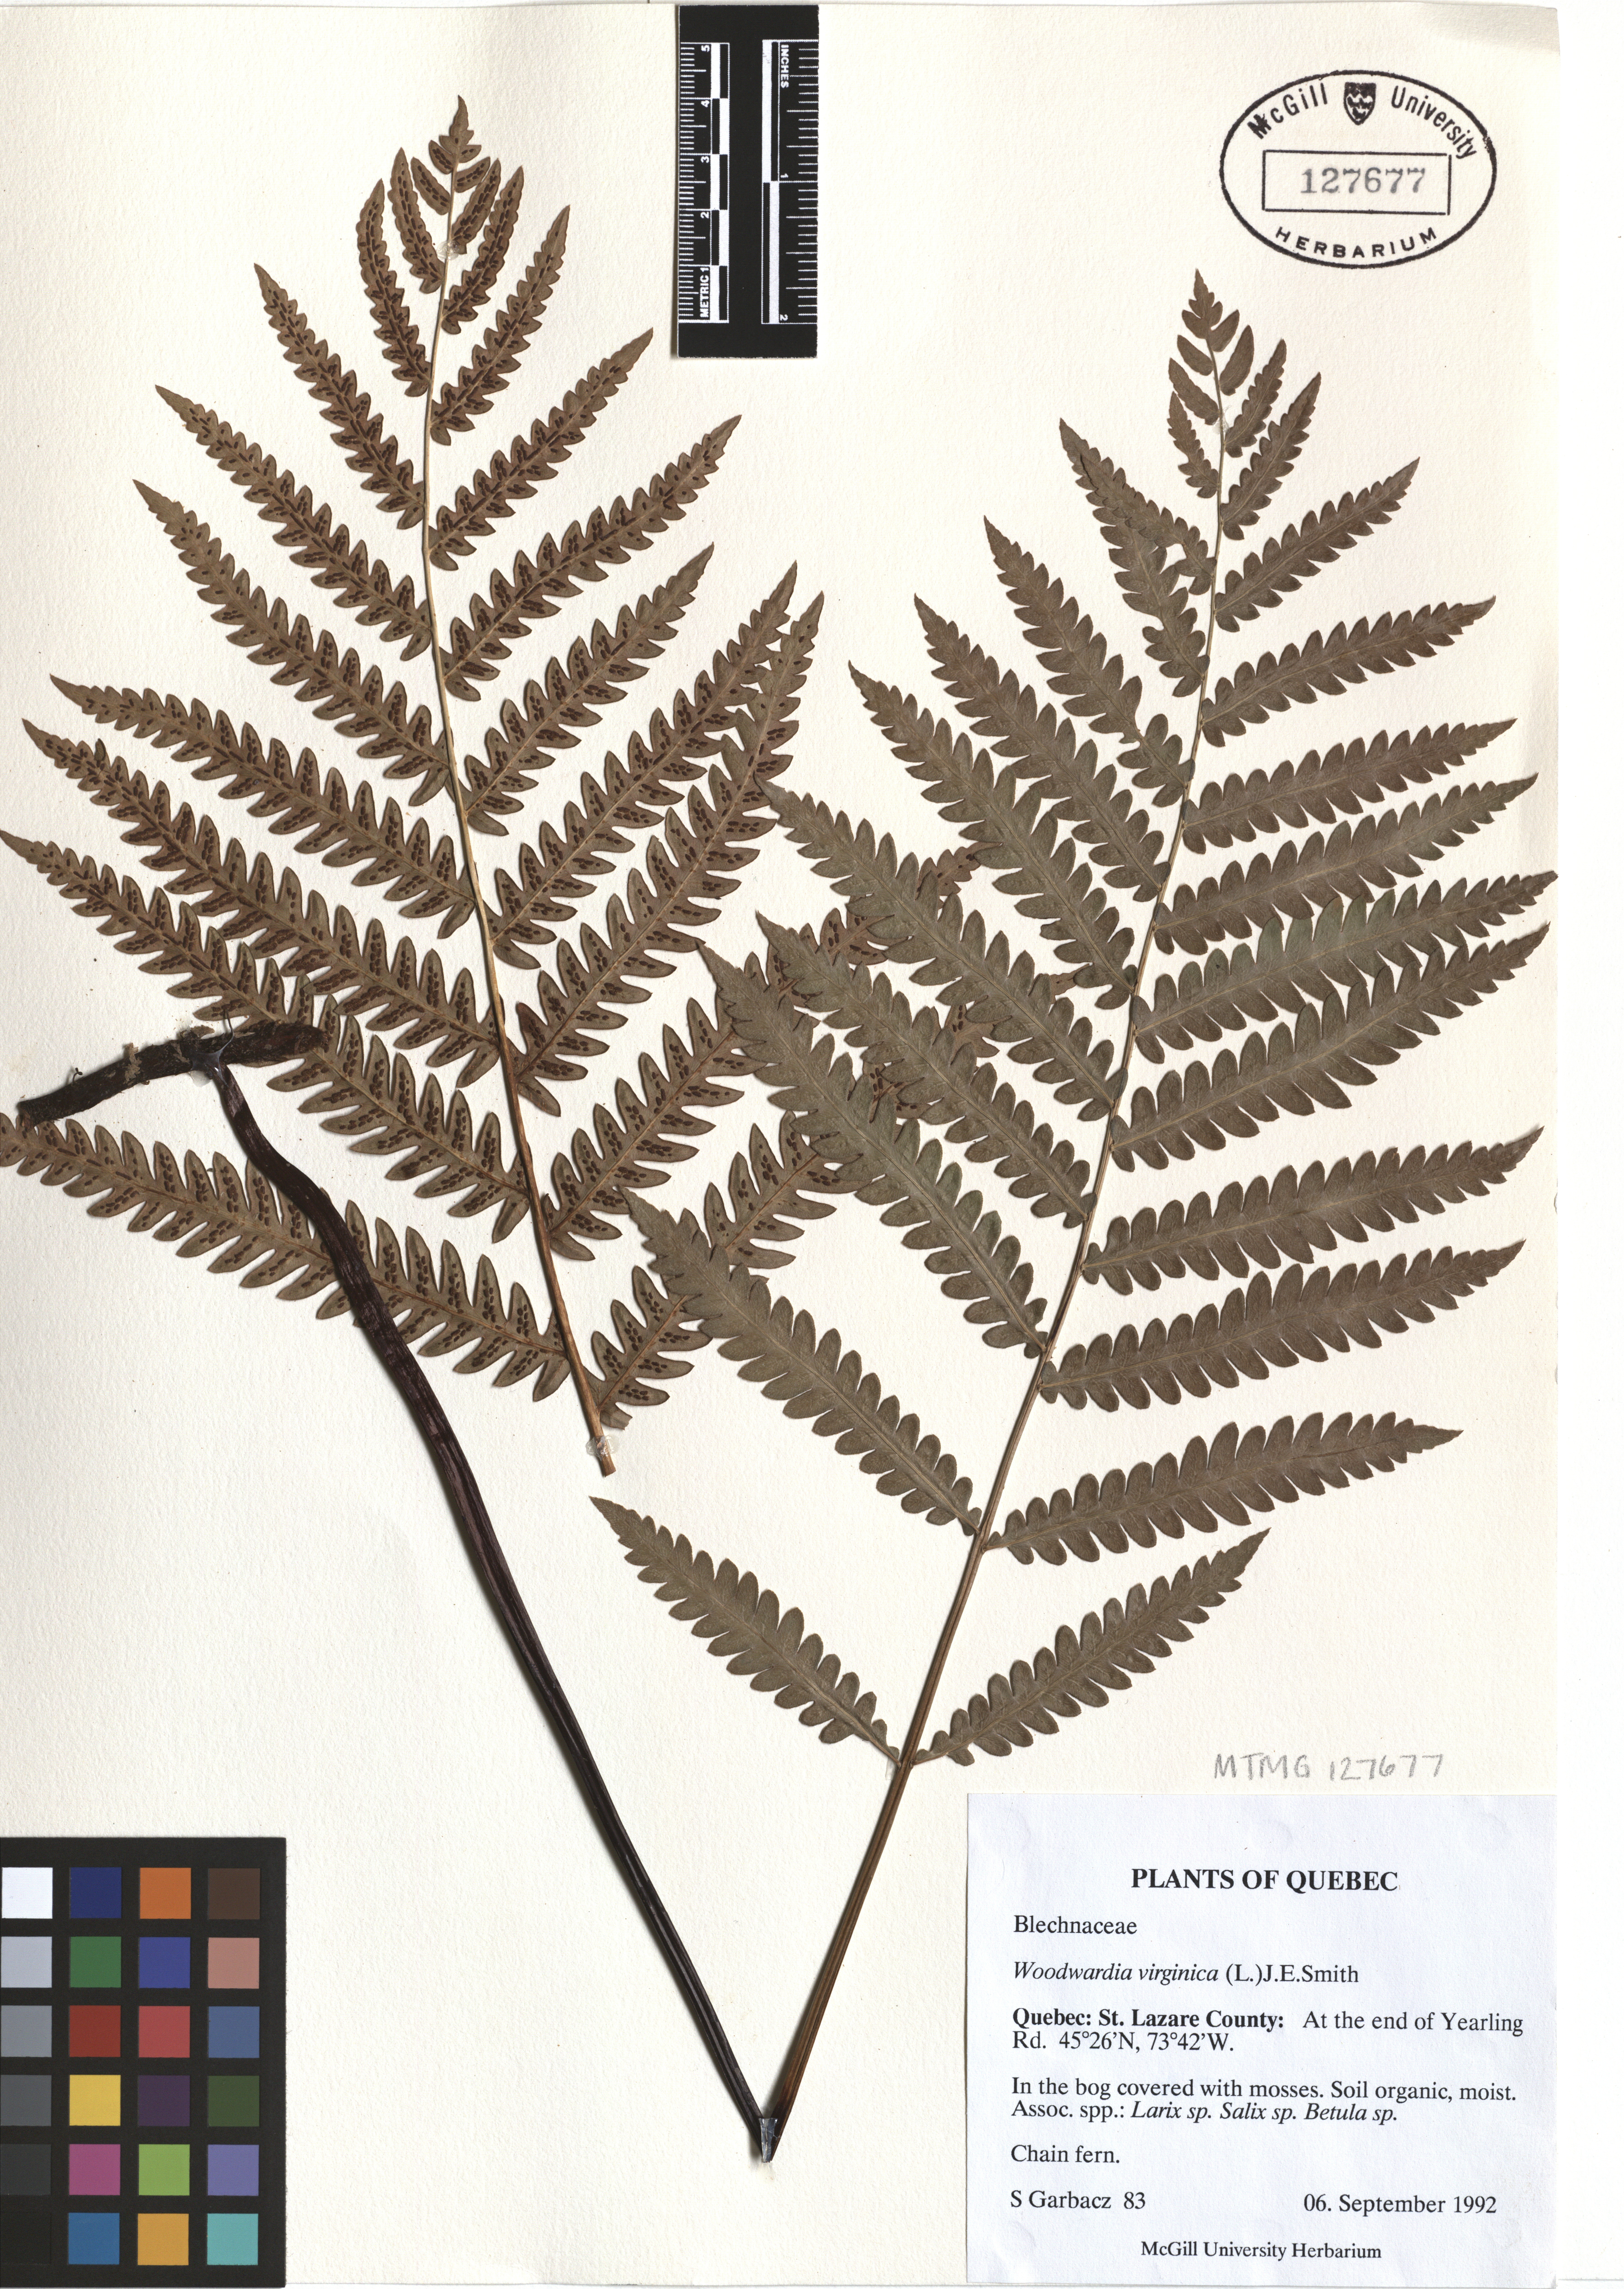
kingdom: Plantae
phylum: Tracheophyta
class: Polypodiopsida
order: Polypodiales
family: Blechnaceae
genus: Anchistea
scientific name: Anchistea virginica
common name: Virginia chain fern
